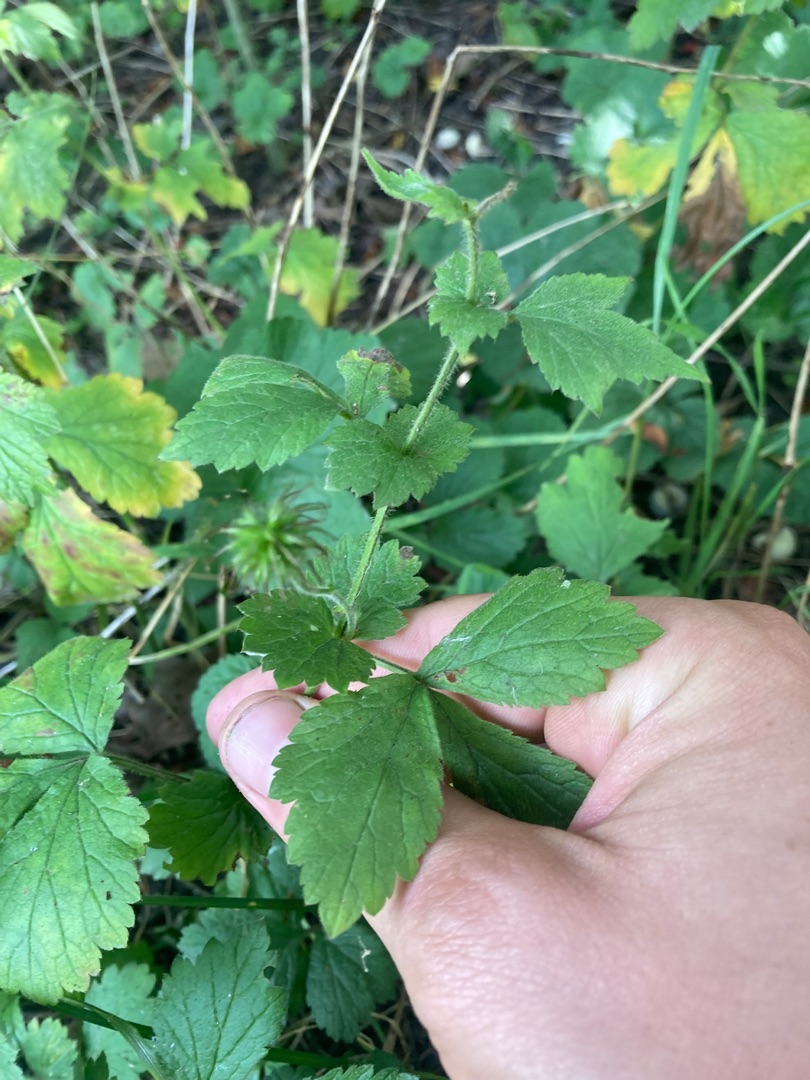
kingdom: Plantae
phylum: Tracheophyta
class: Magnoliopsida
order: Rosales
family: Rosaceae
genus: Geum
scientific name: Geum urbanum
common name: Feber-nellikerod
